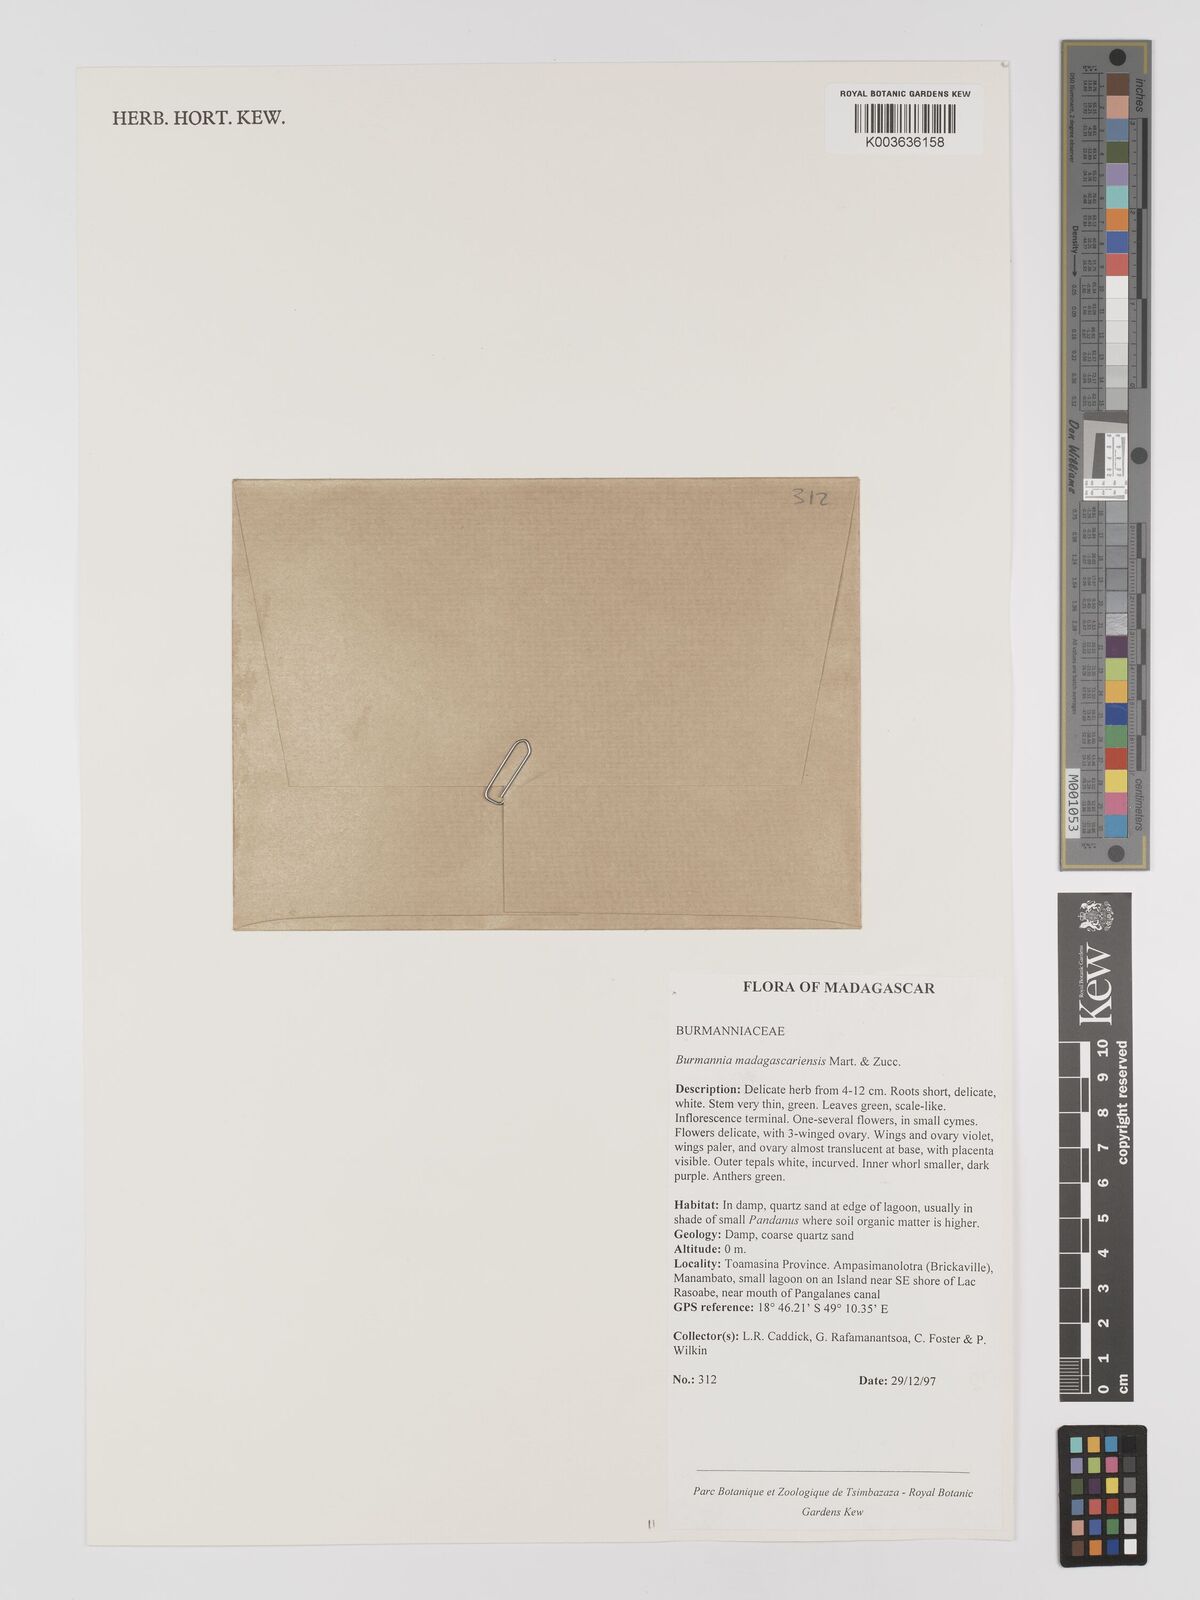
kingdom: Plantae
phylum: Tracheophyta
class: Liliopsida
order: Dioscoreales
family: Burmanniaceae
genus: Burmannia
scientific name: Burmannia madagascariensis
